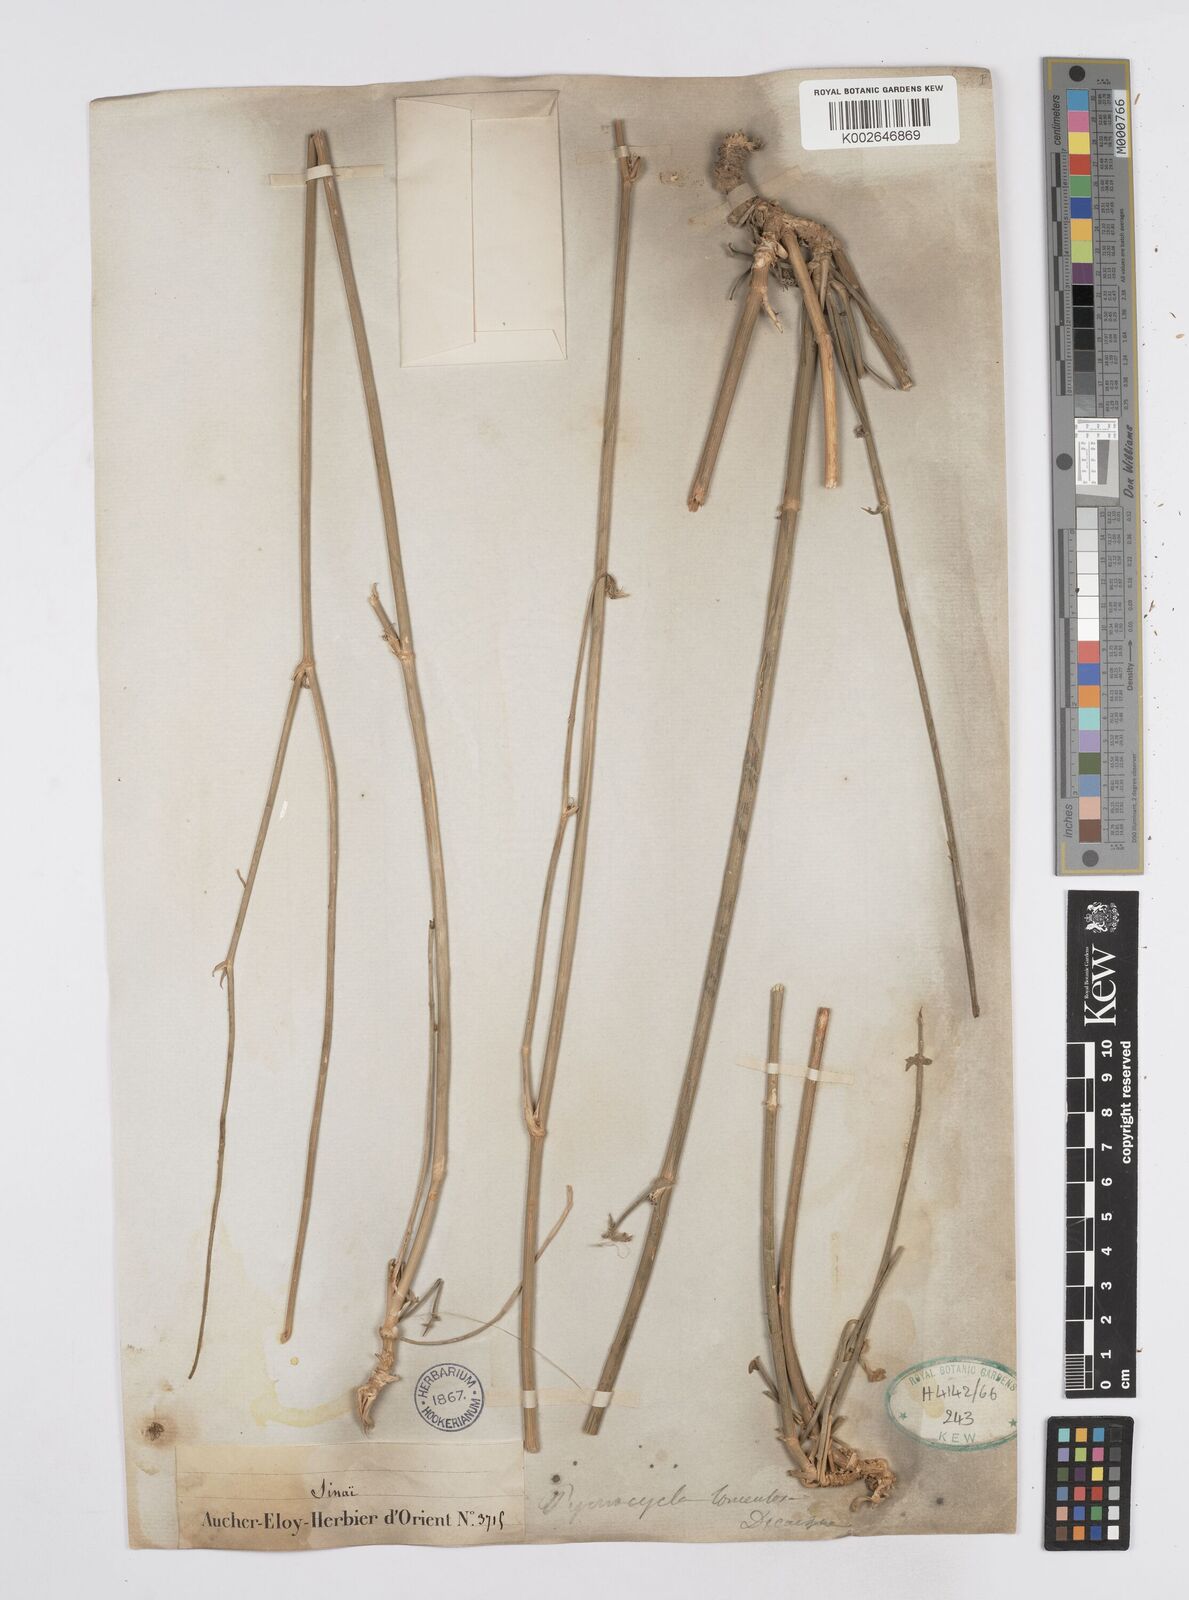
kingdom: Plantae
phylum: Tracheophyta
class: Magnoliopsida
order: Apiales
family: Apiaceae
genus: Pycnocycla
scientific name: Pycnocycla tomentosa
